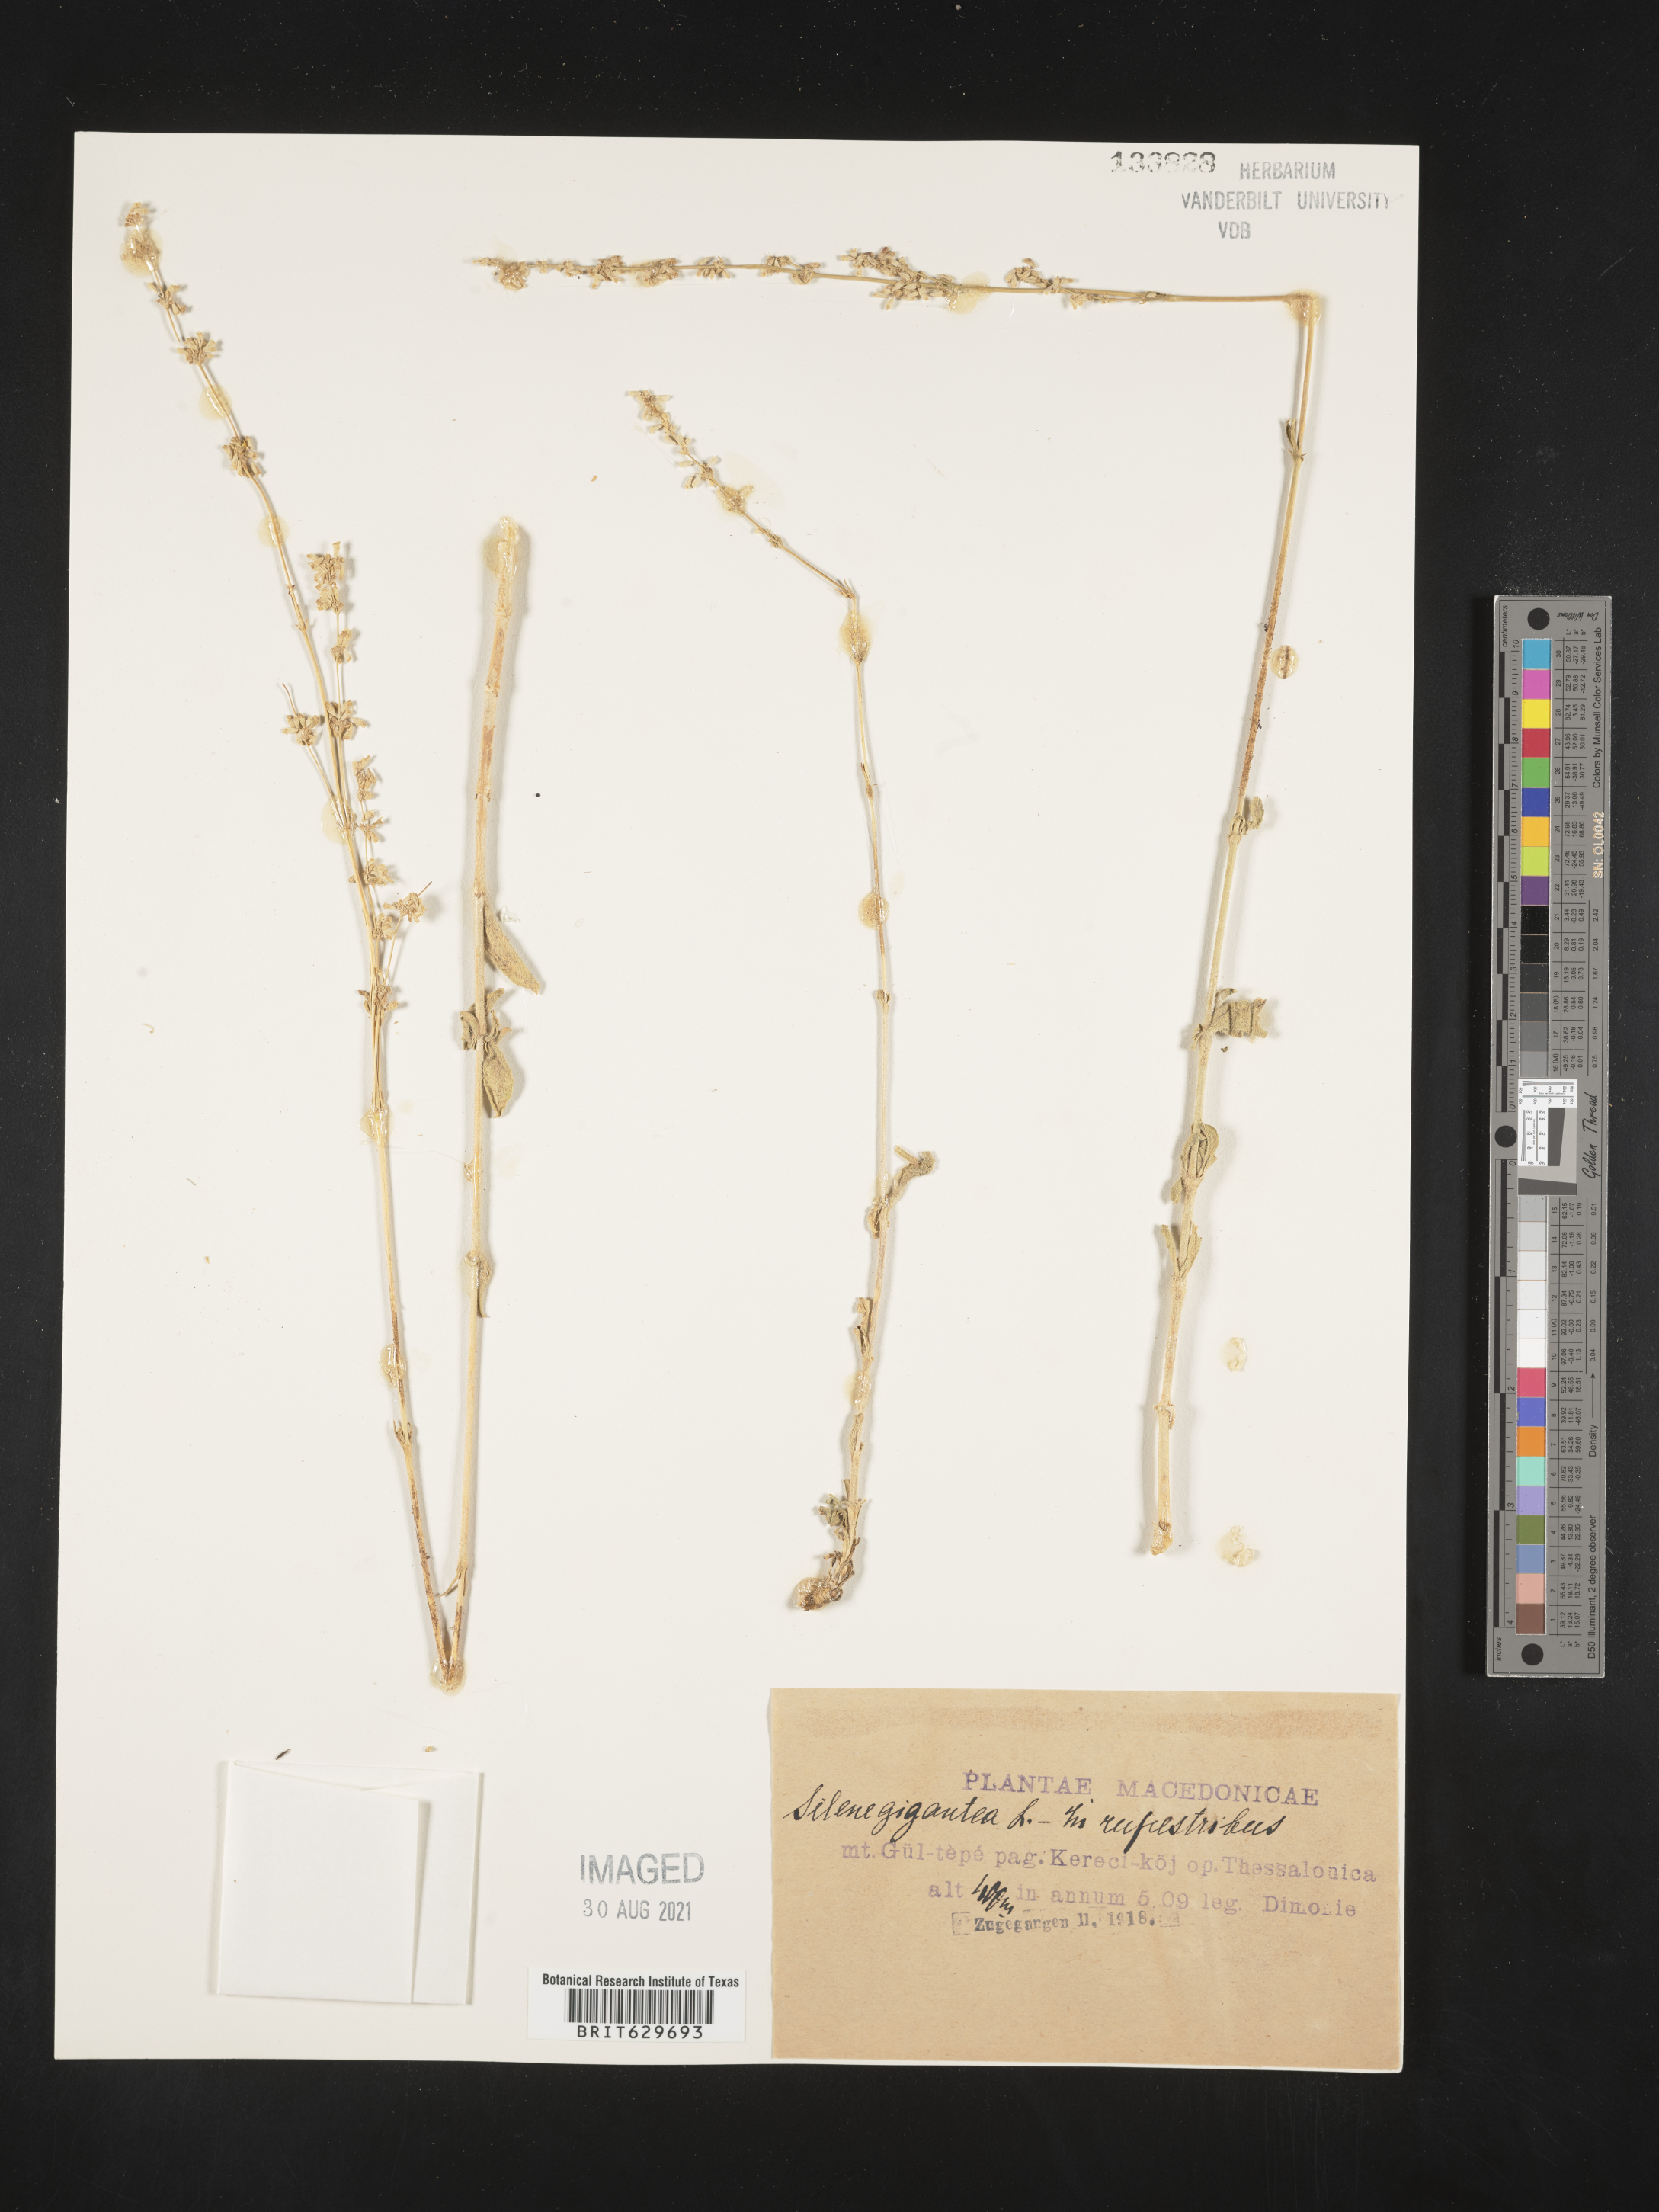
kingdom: Plantae
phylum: Tracheophyta
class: Magnoliopsida
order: Caryophyllales
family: Caryophyllaceae
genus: Silene
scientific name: Silene gigantea
